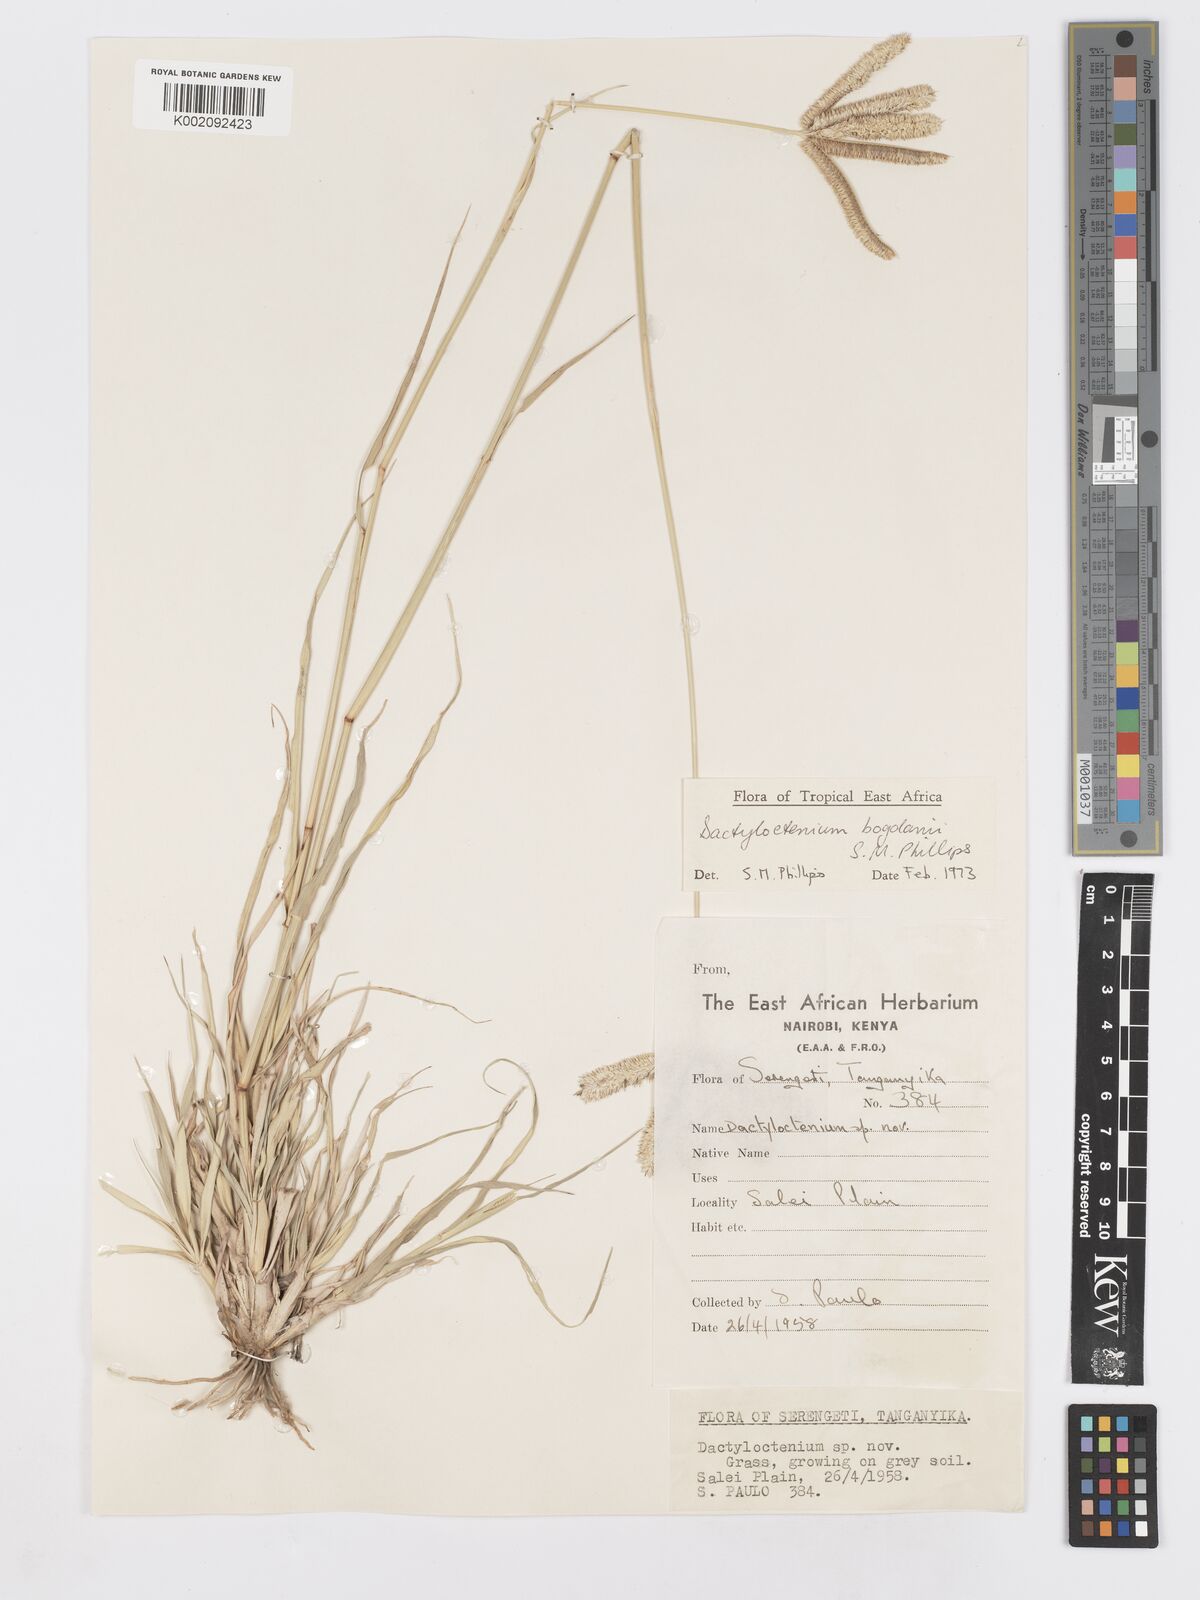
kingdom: Plantae
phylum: Tracheophyta
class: Liliopsida
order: Poales
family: Poaceae
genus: Dactyloctenium
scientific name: Dactyloctenium geminatum
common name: Crowsfoot grass
